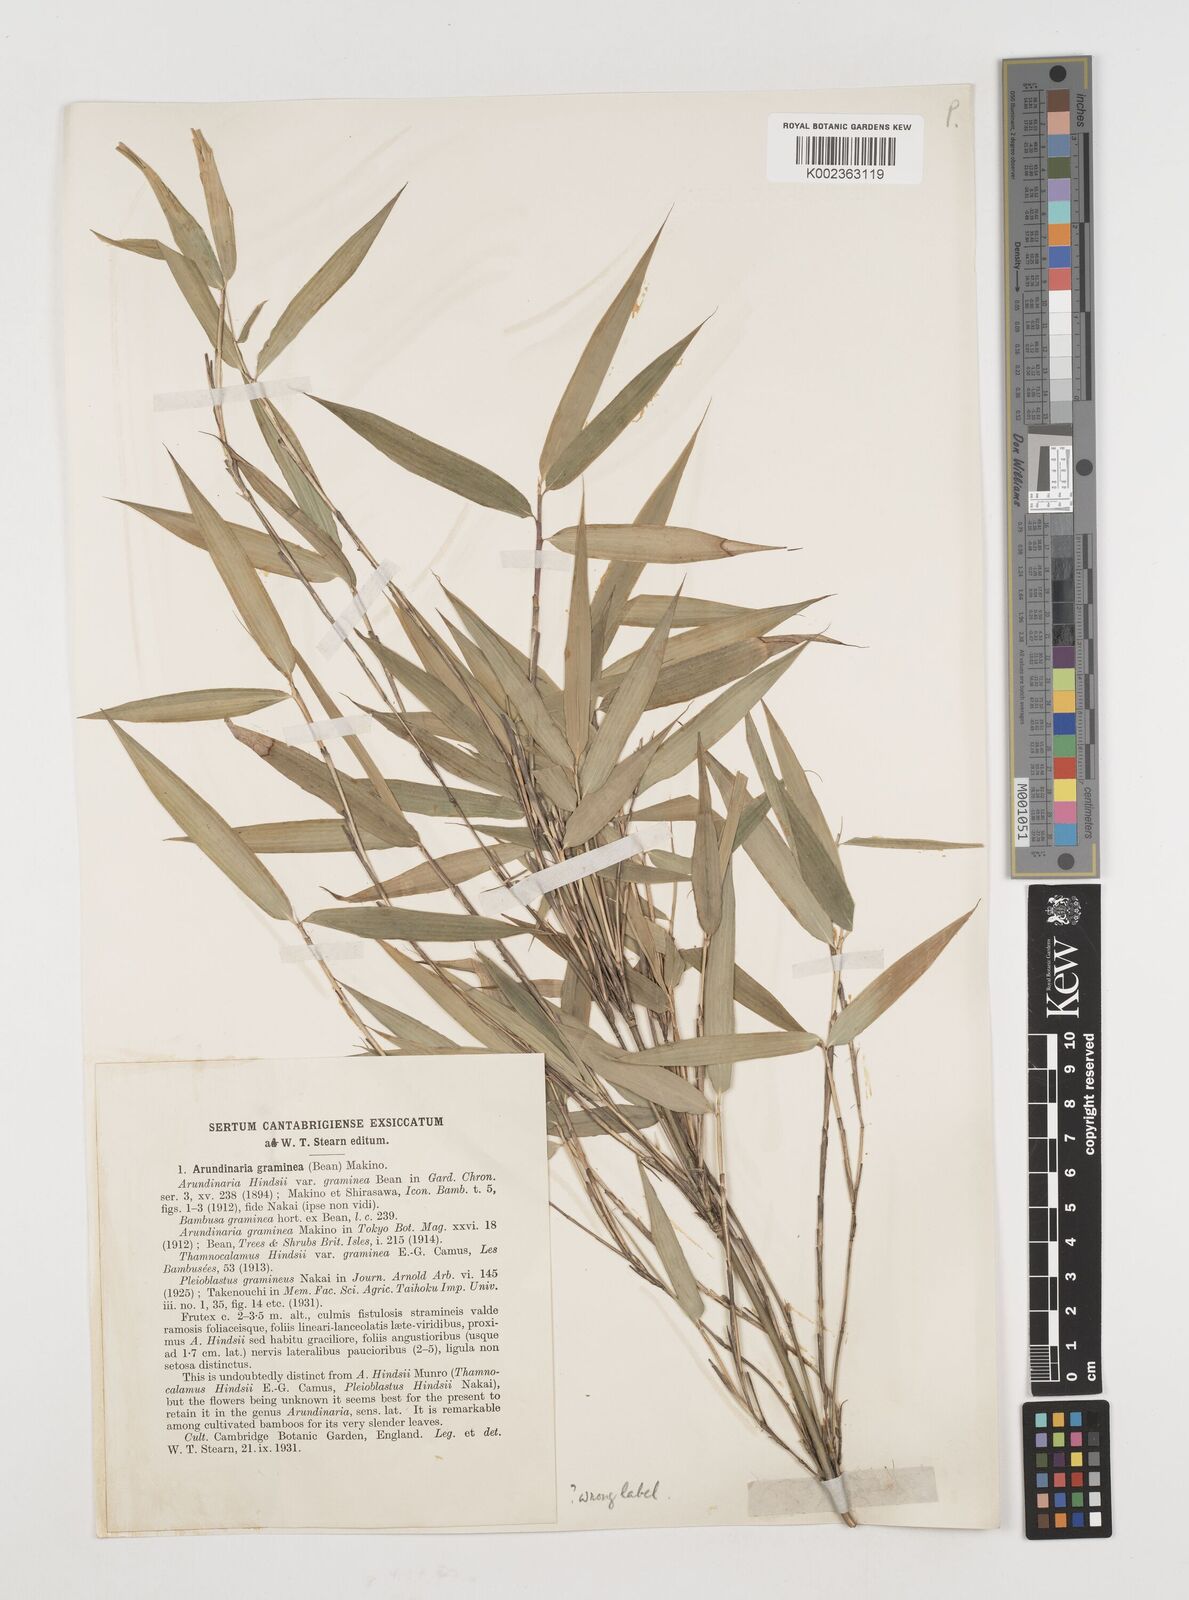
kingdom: Plantae
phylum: Tracheophyta
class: Liliopsida
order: Poales
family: Poaceae
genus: Fargesia
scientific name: Fargesia murielae
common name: Umbrella bamboo
